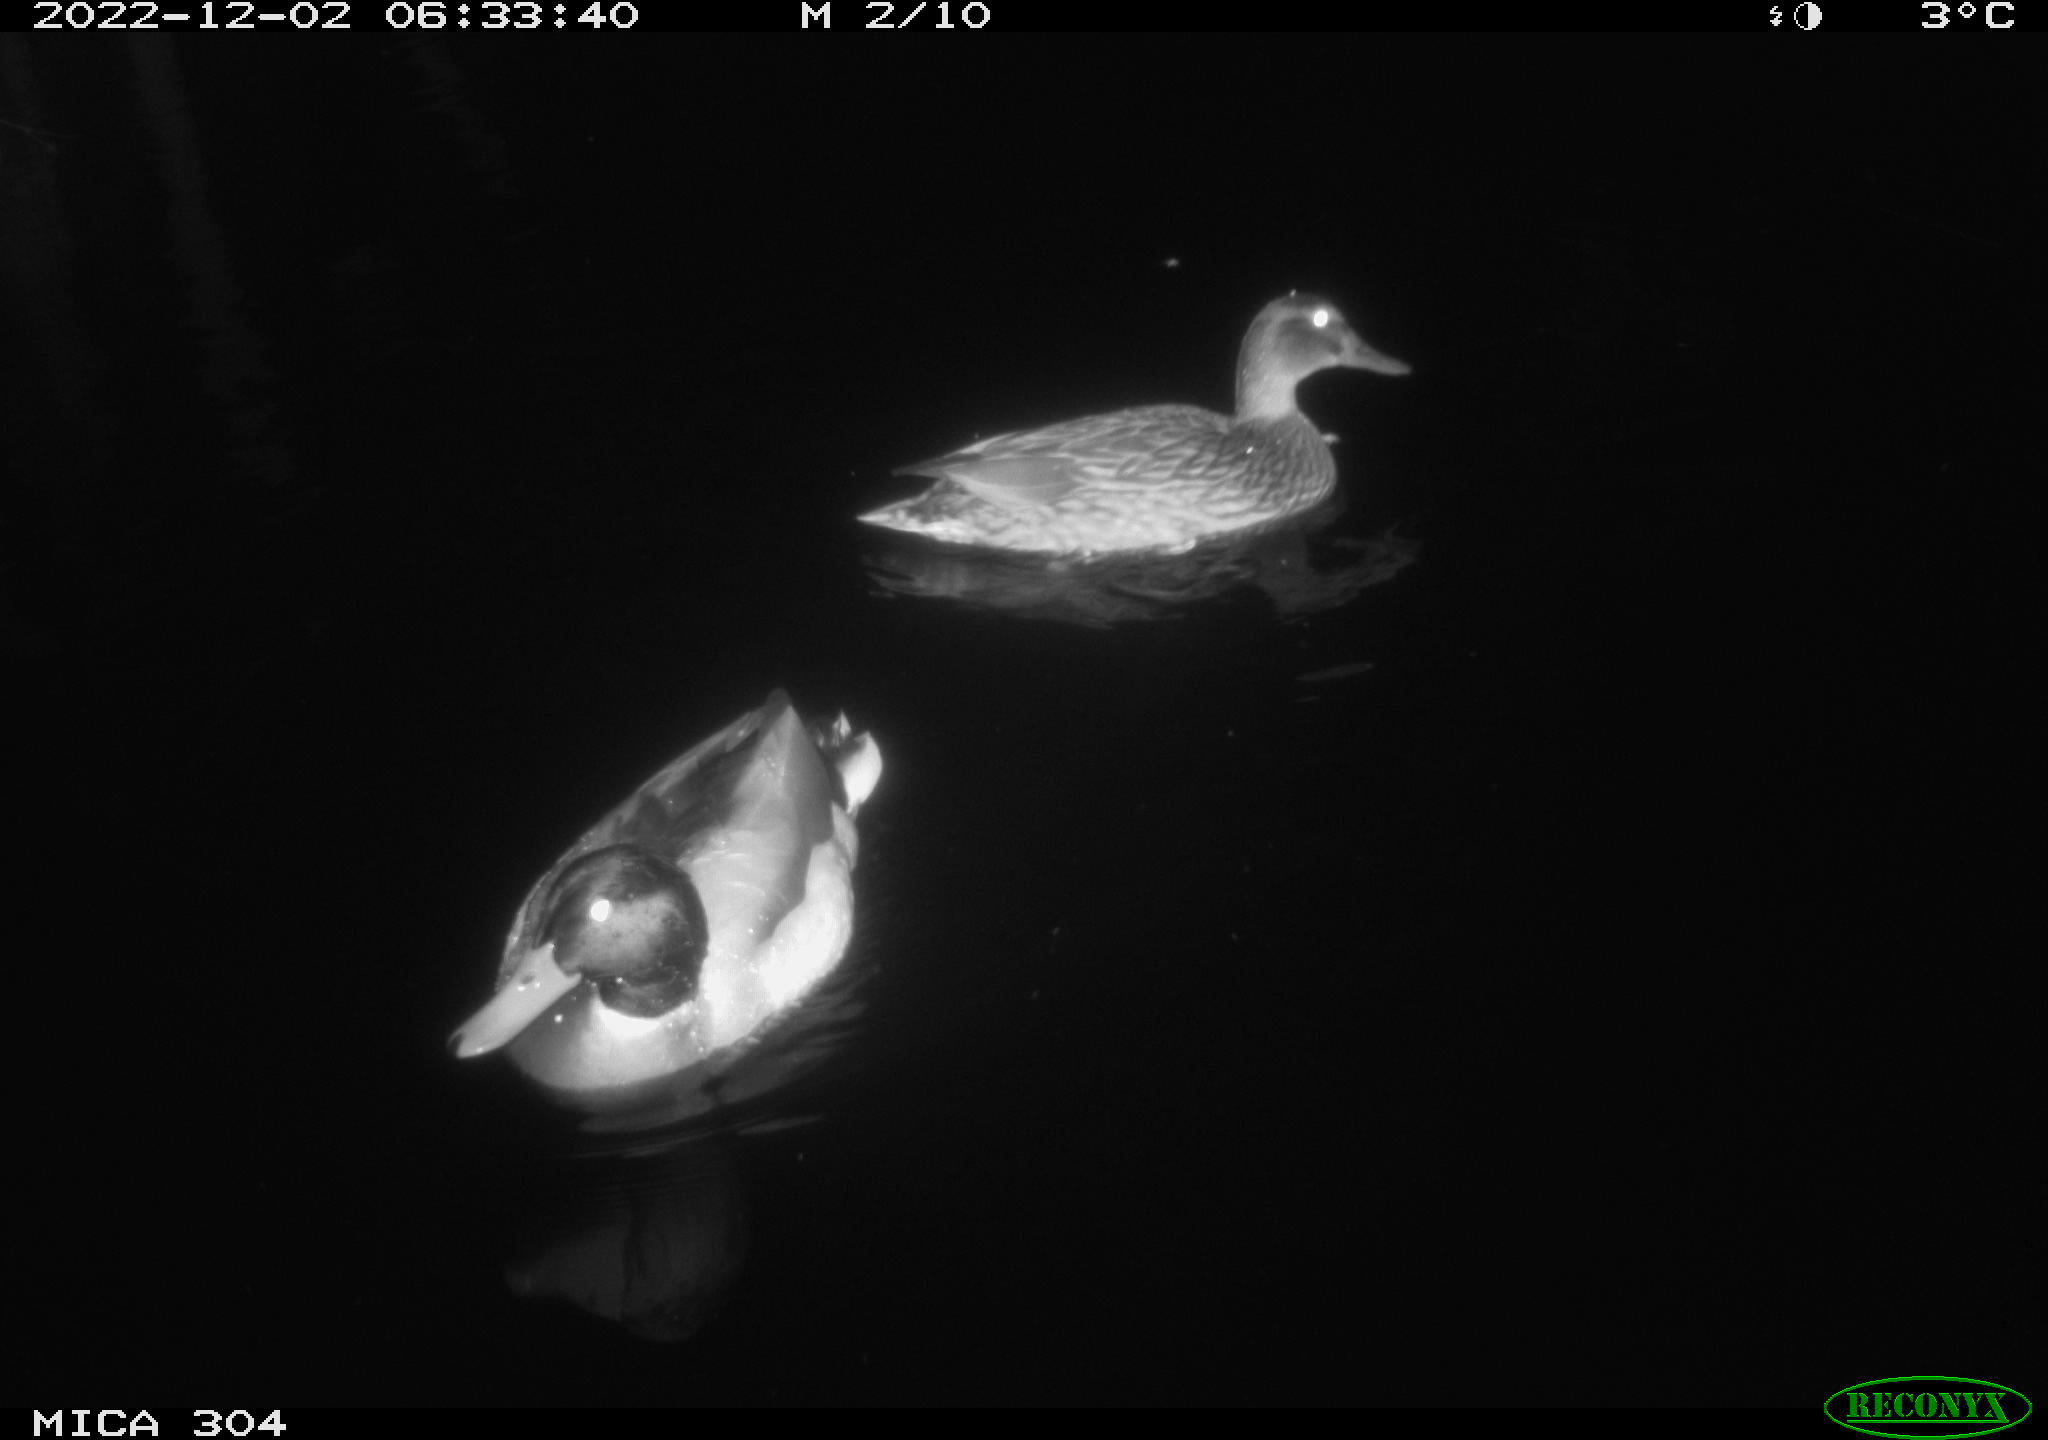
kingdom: Animalia
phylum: Chordata
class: Aves
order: Anseriformes
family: Anatidae
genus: Anas
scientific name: Anas
